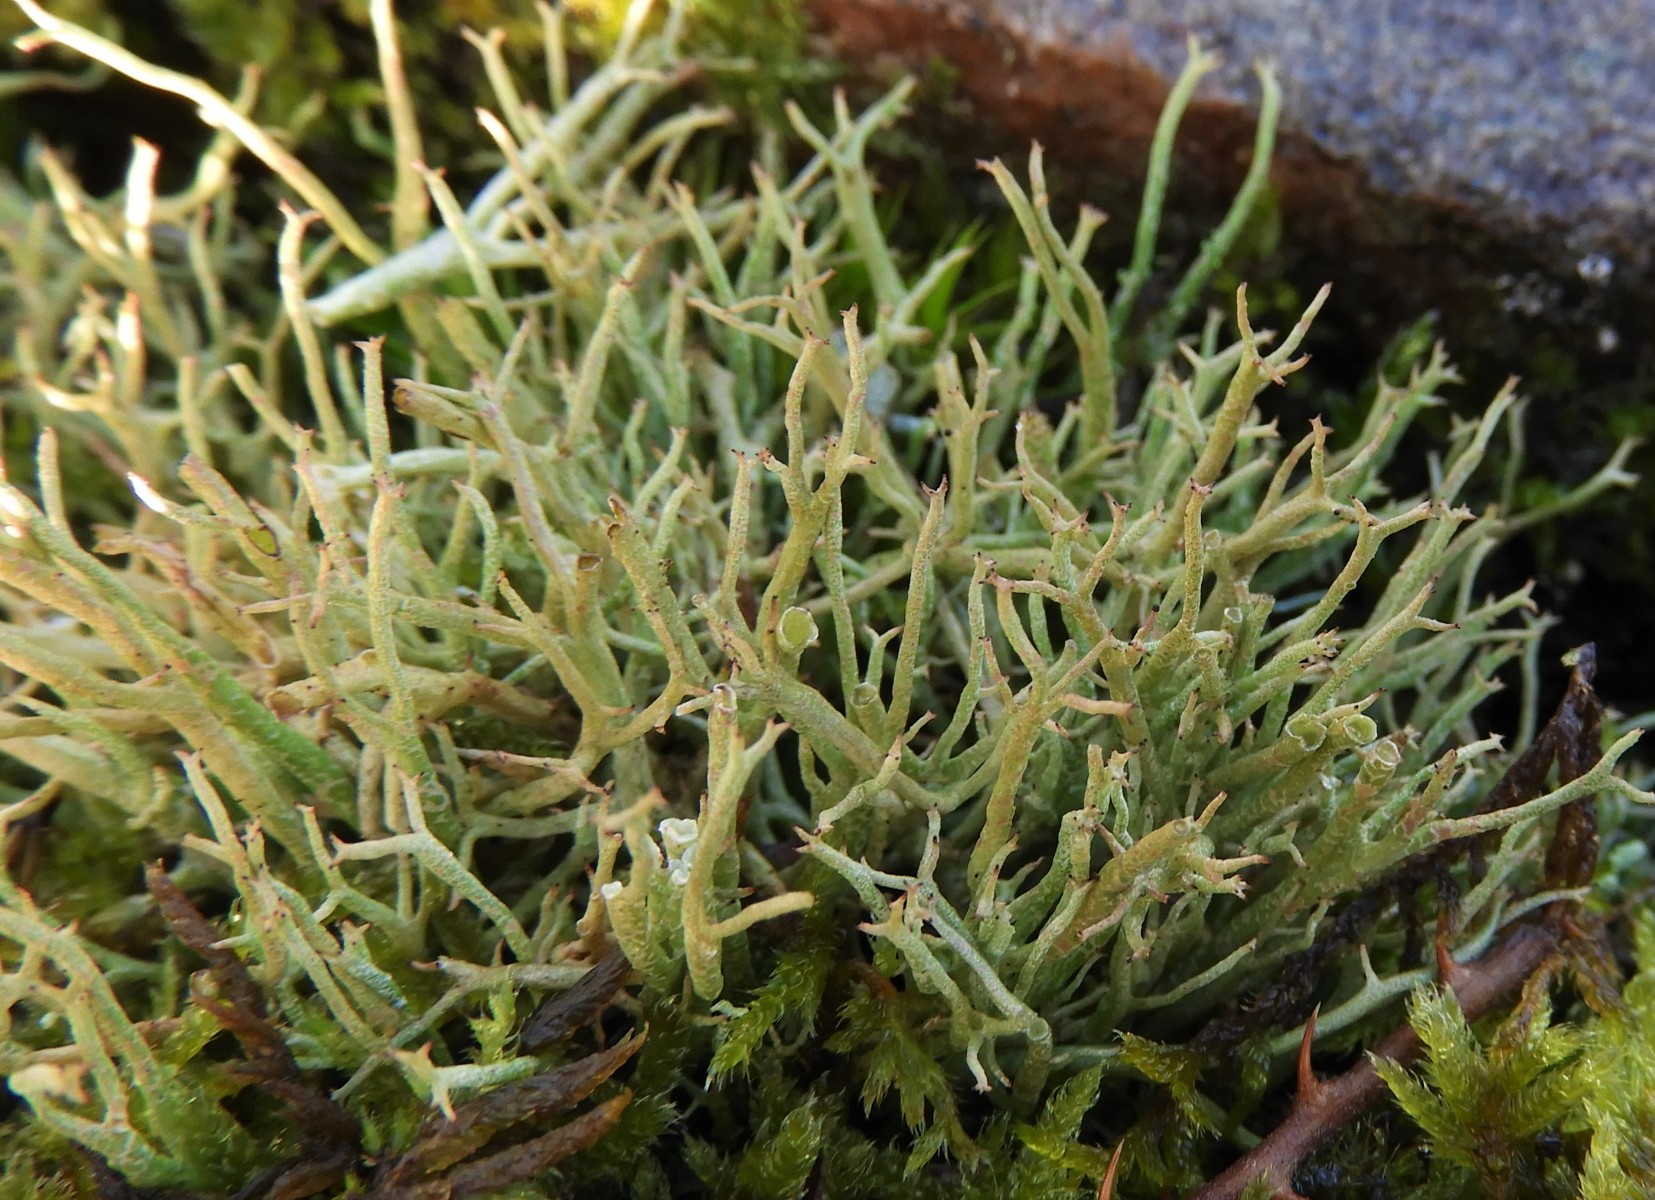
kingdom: Fungi
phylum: Ascomycota
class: Lecanoromycetes
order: Lecanorales
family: Cladoniaceae
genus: Cladonia
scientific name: Cladonia rangiformis
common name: spættet bægerlav
